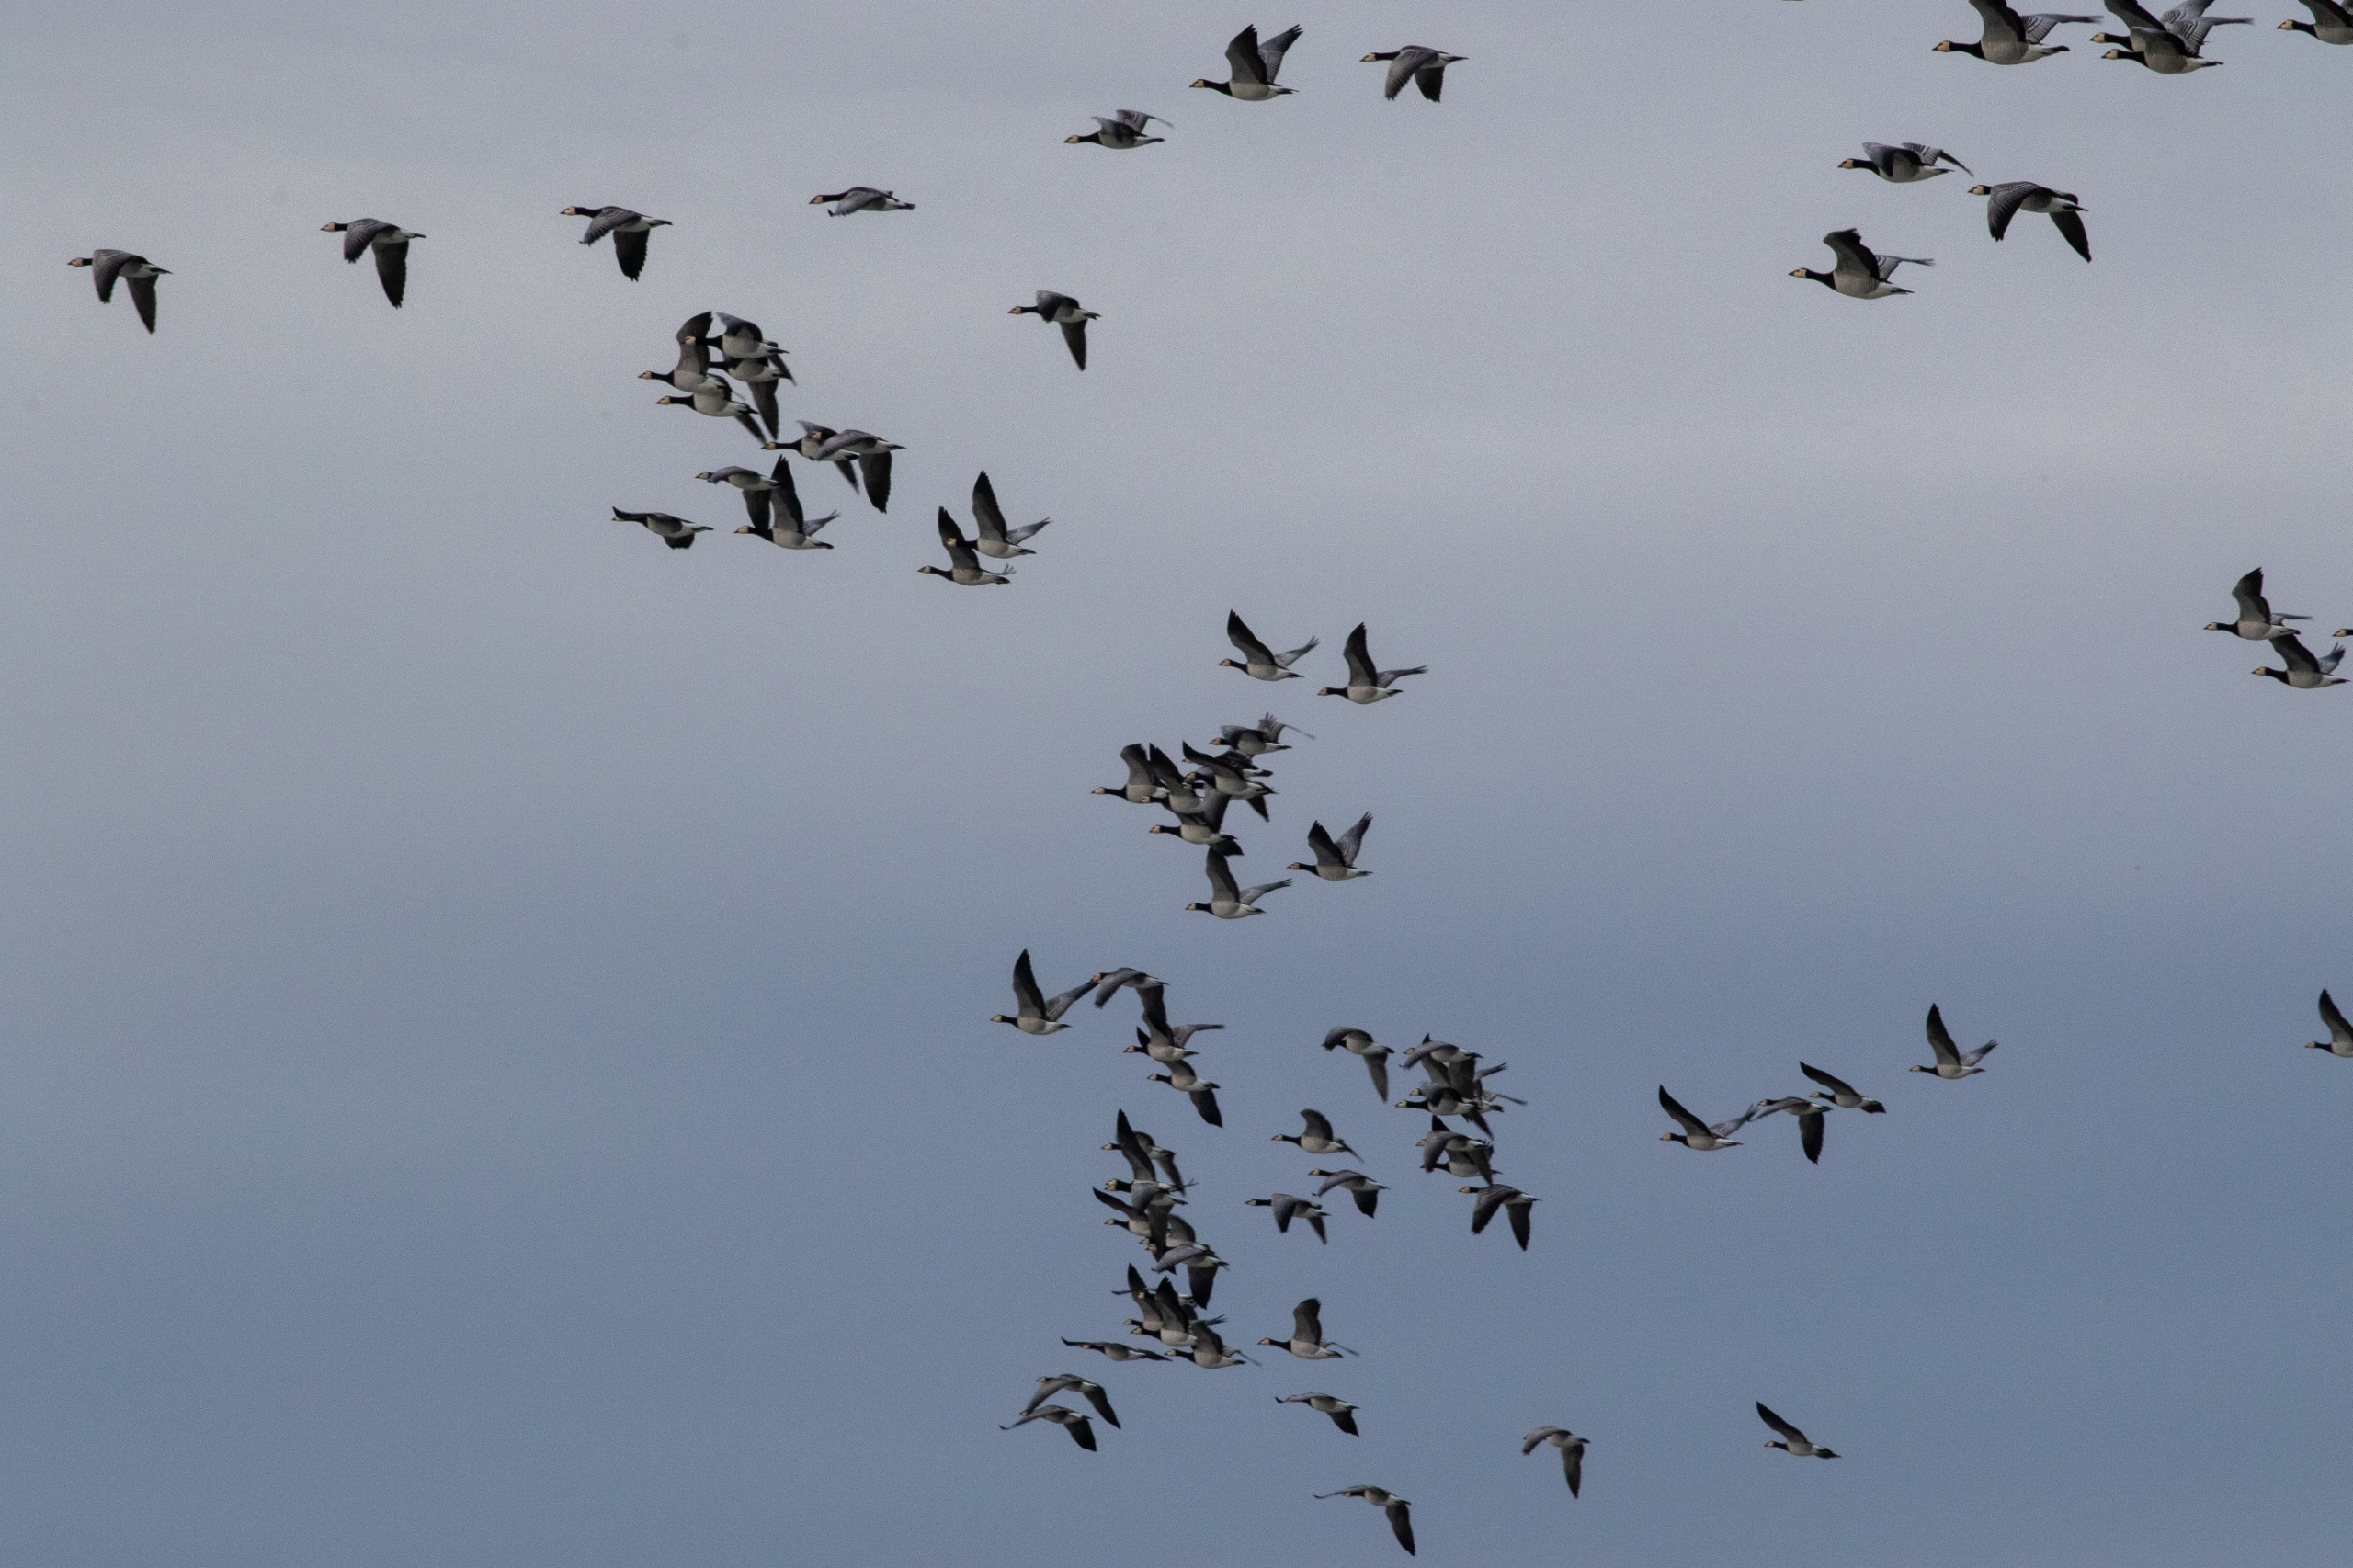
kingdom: Animalia
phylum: Chordata
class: Aves
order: Anseriformes
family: Anatidae
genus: Branta
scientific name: Branta leucopsis
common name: Bramgås
